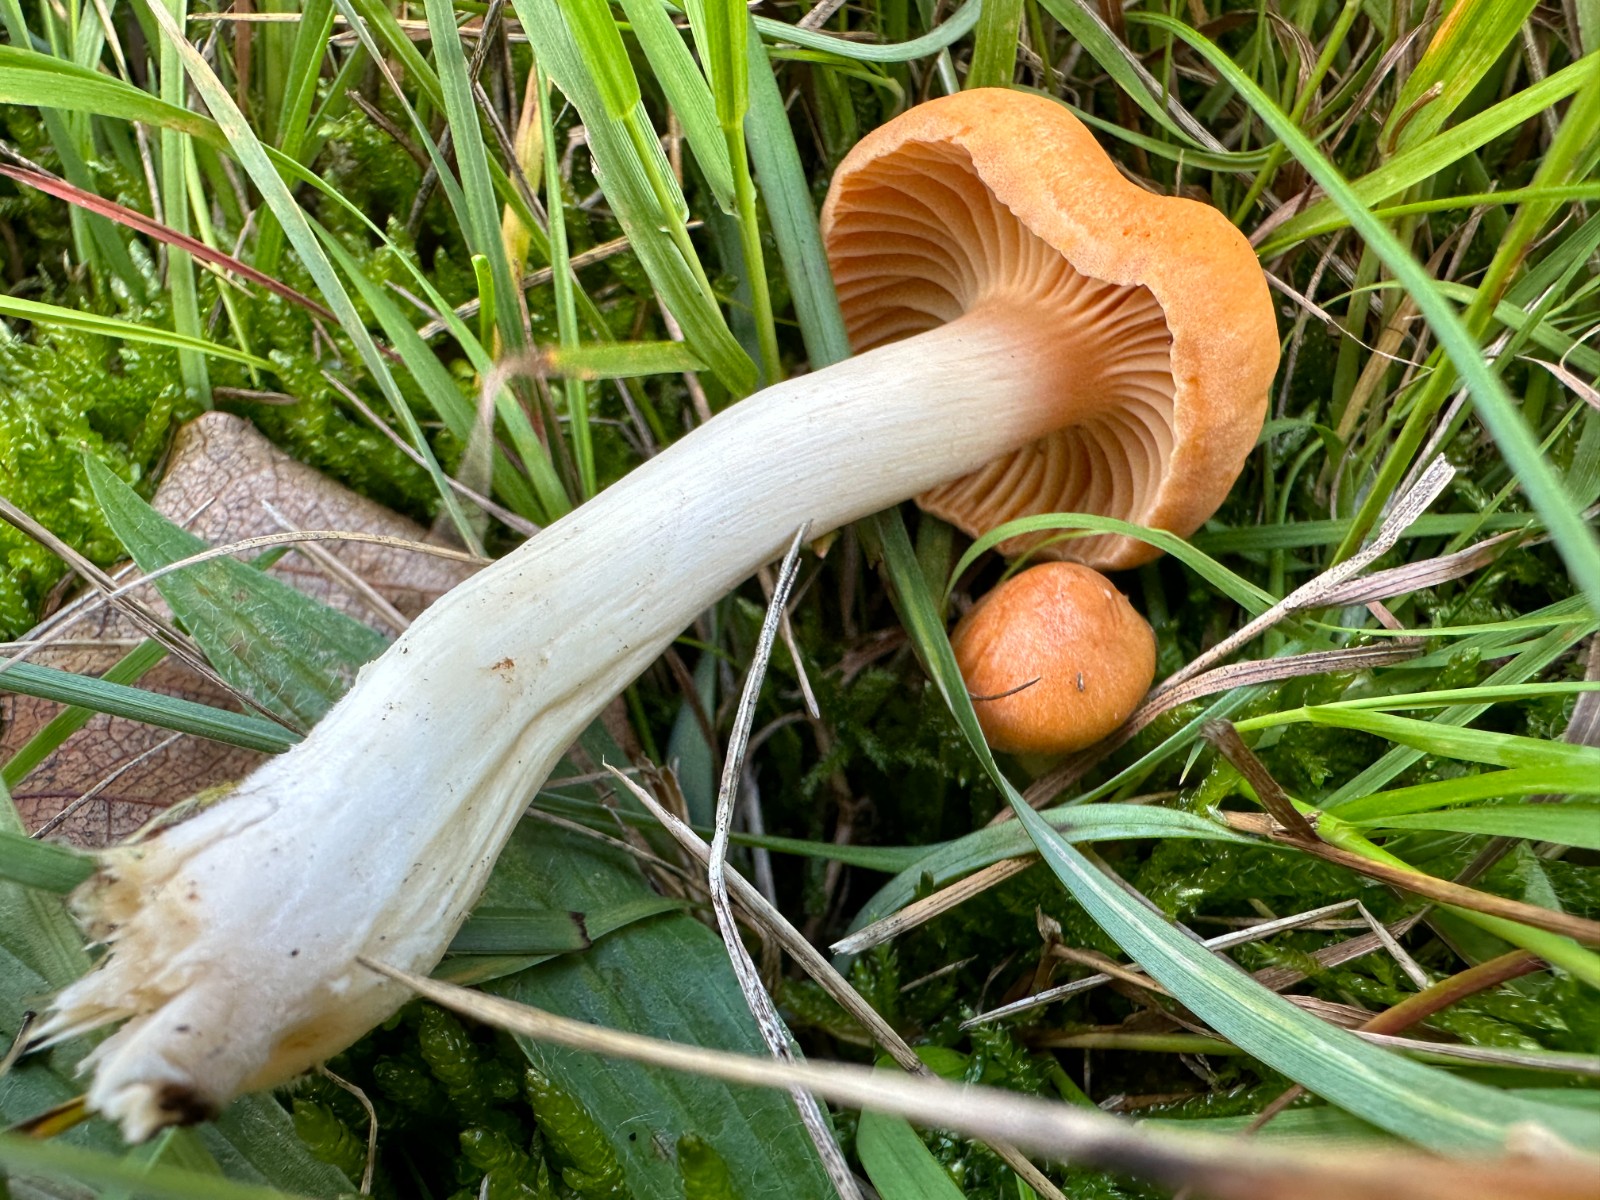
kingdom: Fungi
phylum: Basidiomycota
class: Agaricomycetes
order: Agaricales
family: Hygrophoraceae
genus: Cuphophyllus
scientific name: Cuphophyllus pratensis
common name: eng-vokshat
